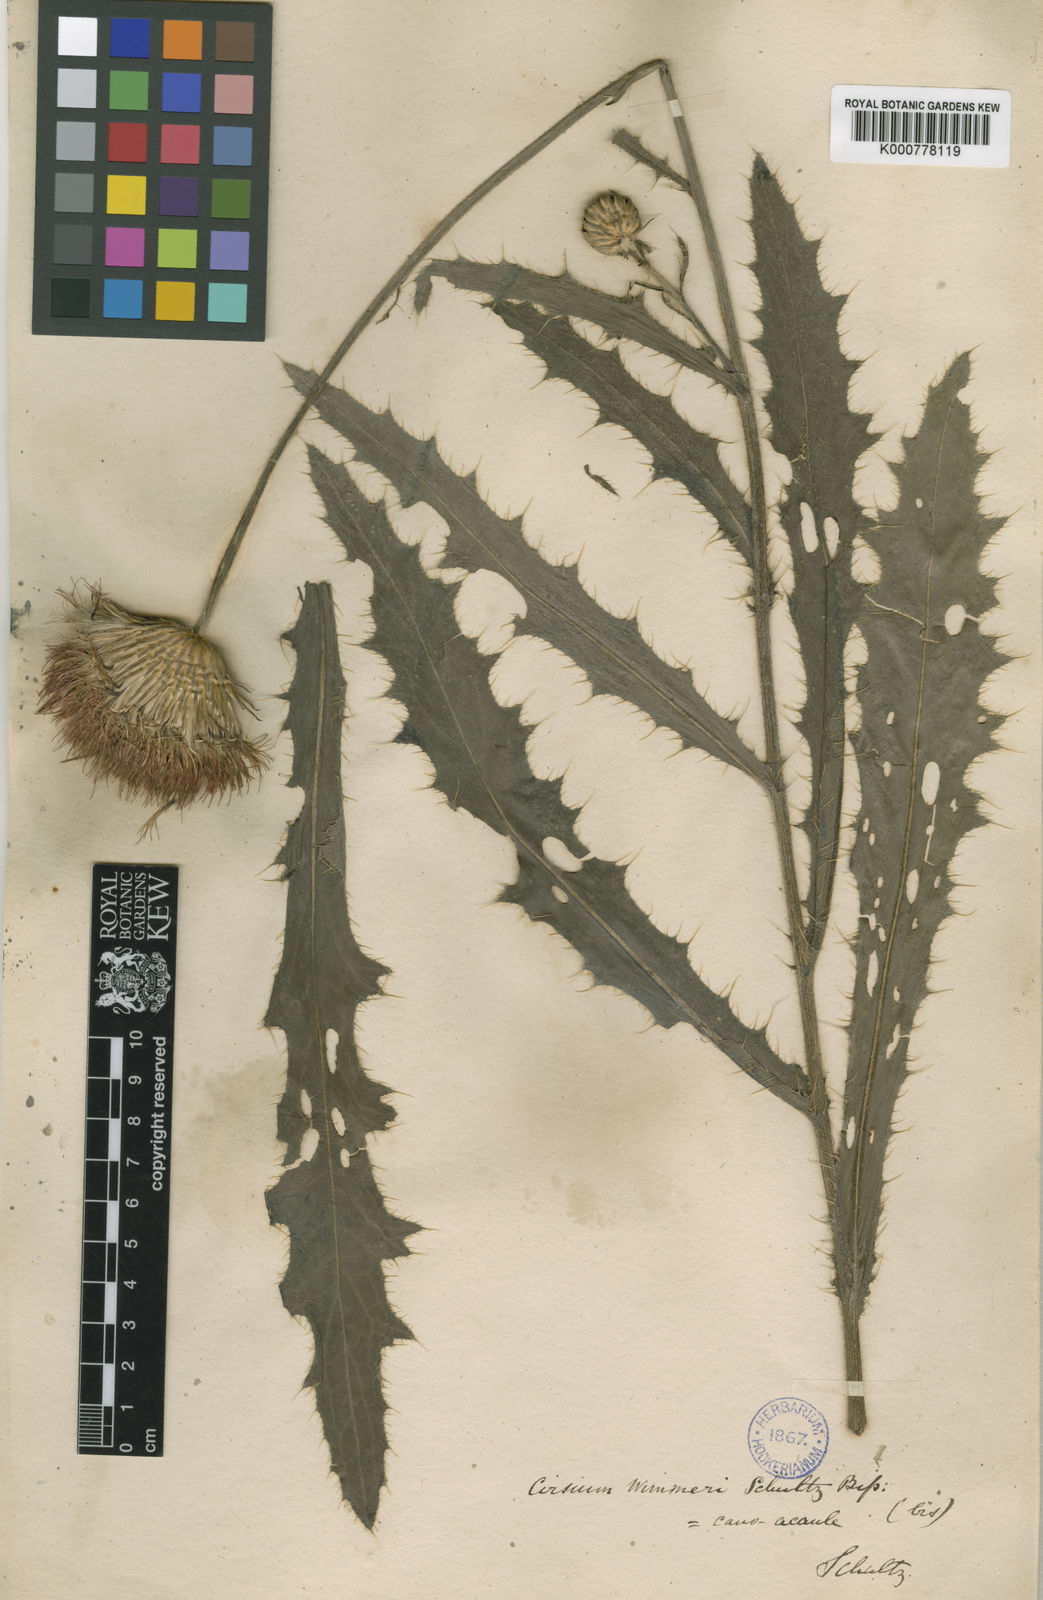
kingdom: Plantae
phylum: Tracheophyta
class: Magnoliopsida
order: Asterales
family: Asteraceae
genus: Cirsium
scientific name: Cirsium canum
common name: Queen anne's thistle
